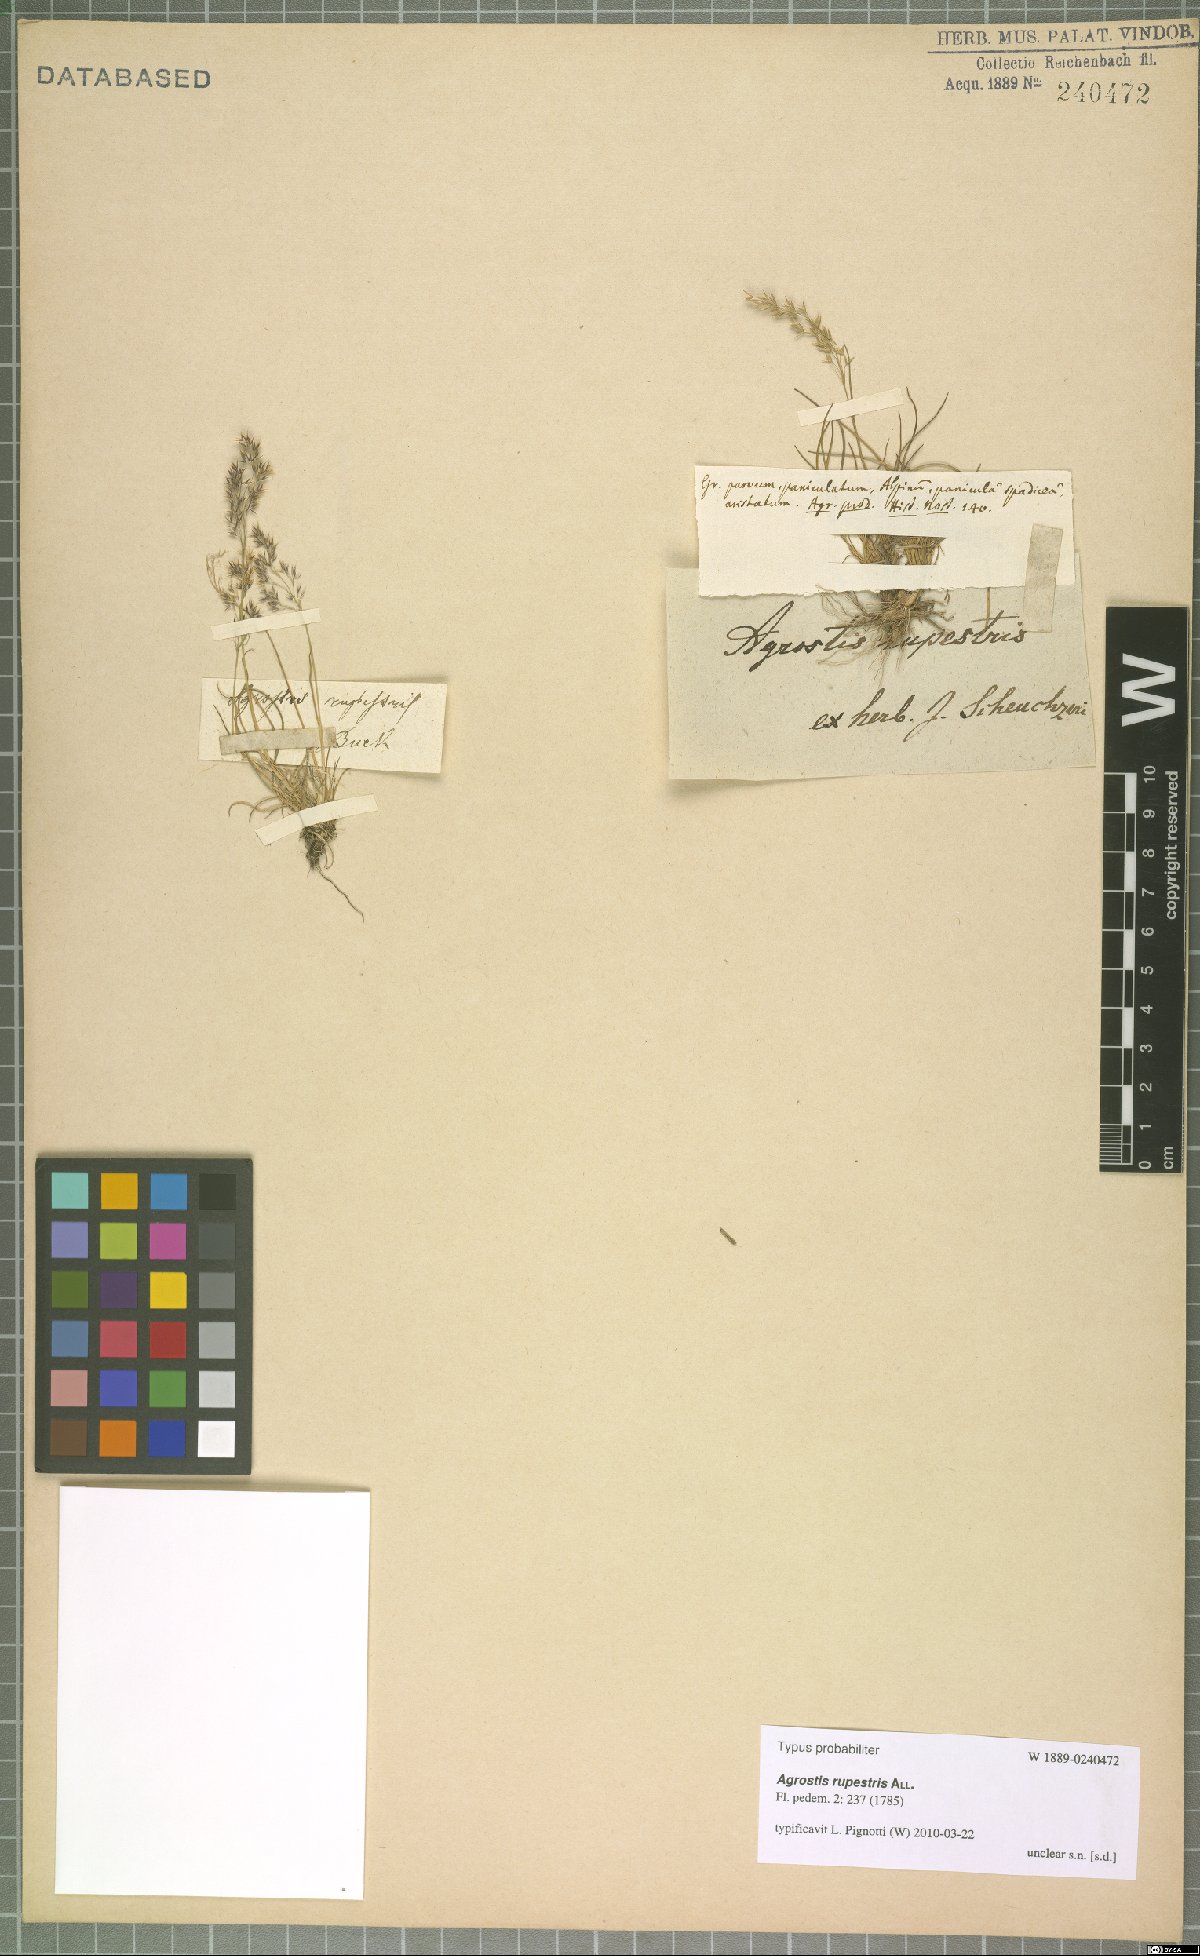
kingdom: Plantae
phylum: Tracheophyta
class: Liliopsida
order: Poales
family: Poaceae
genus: Agrostis
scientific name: Agrostis rupestris
